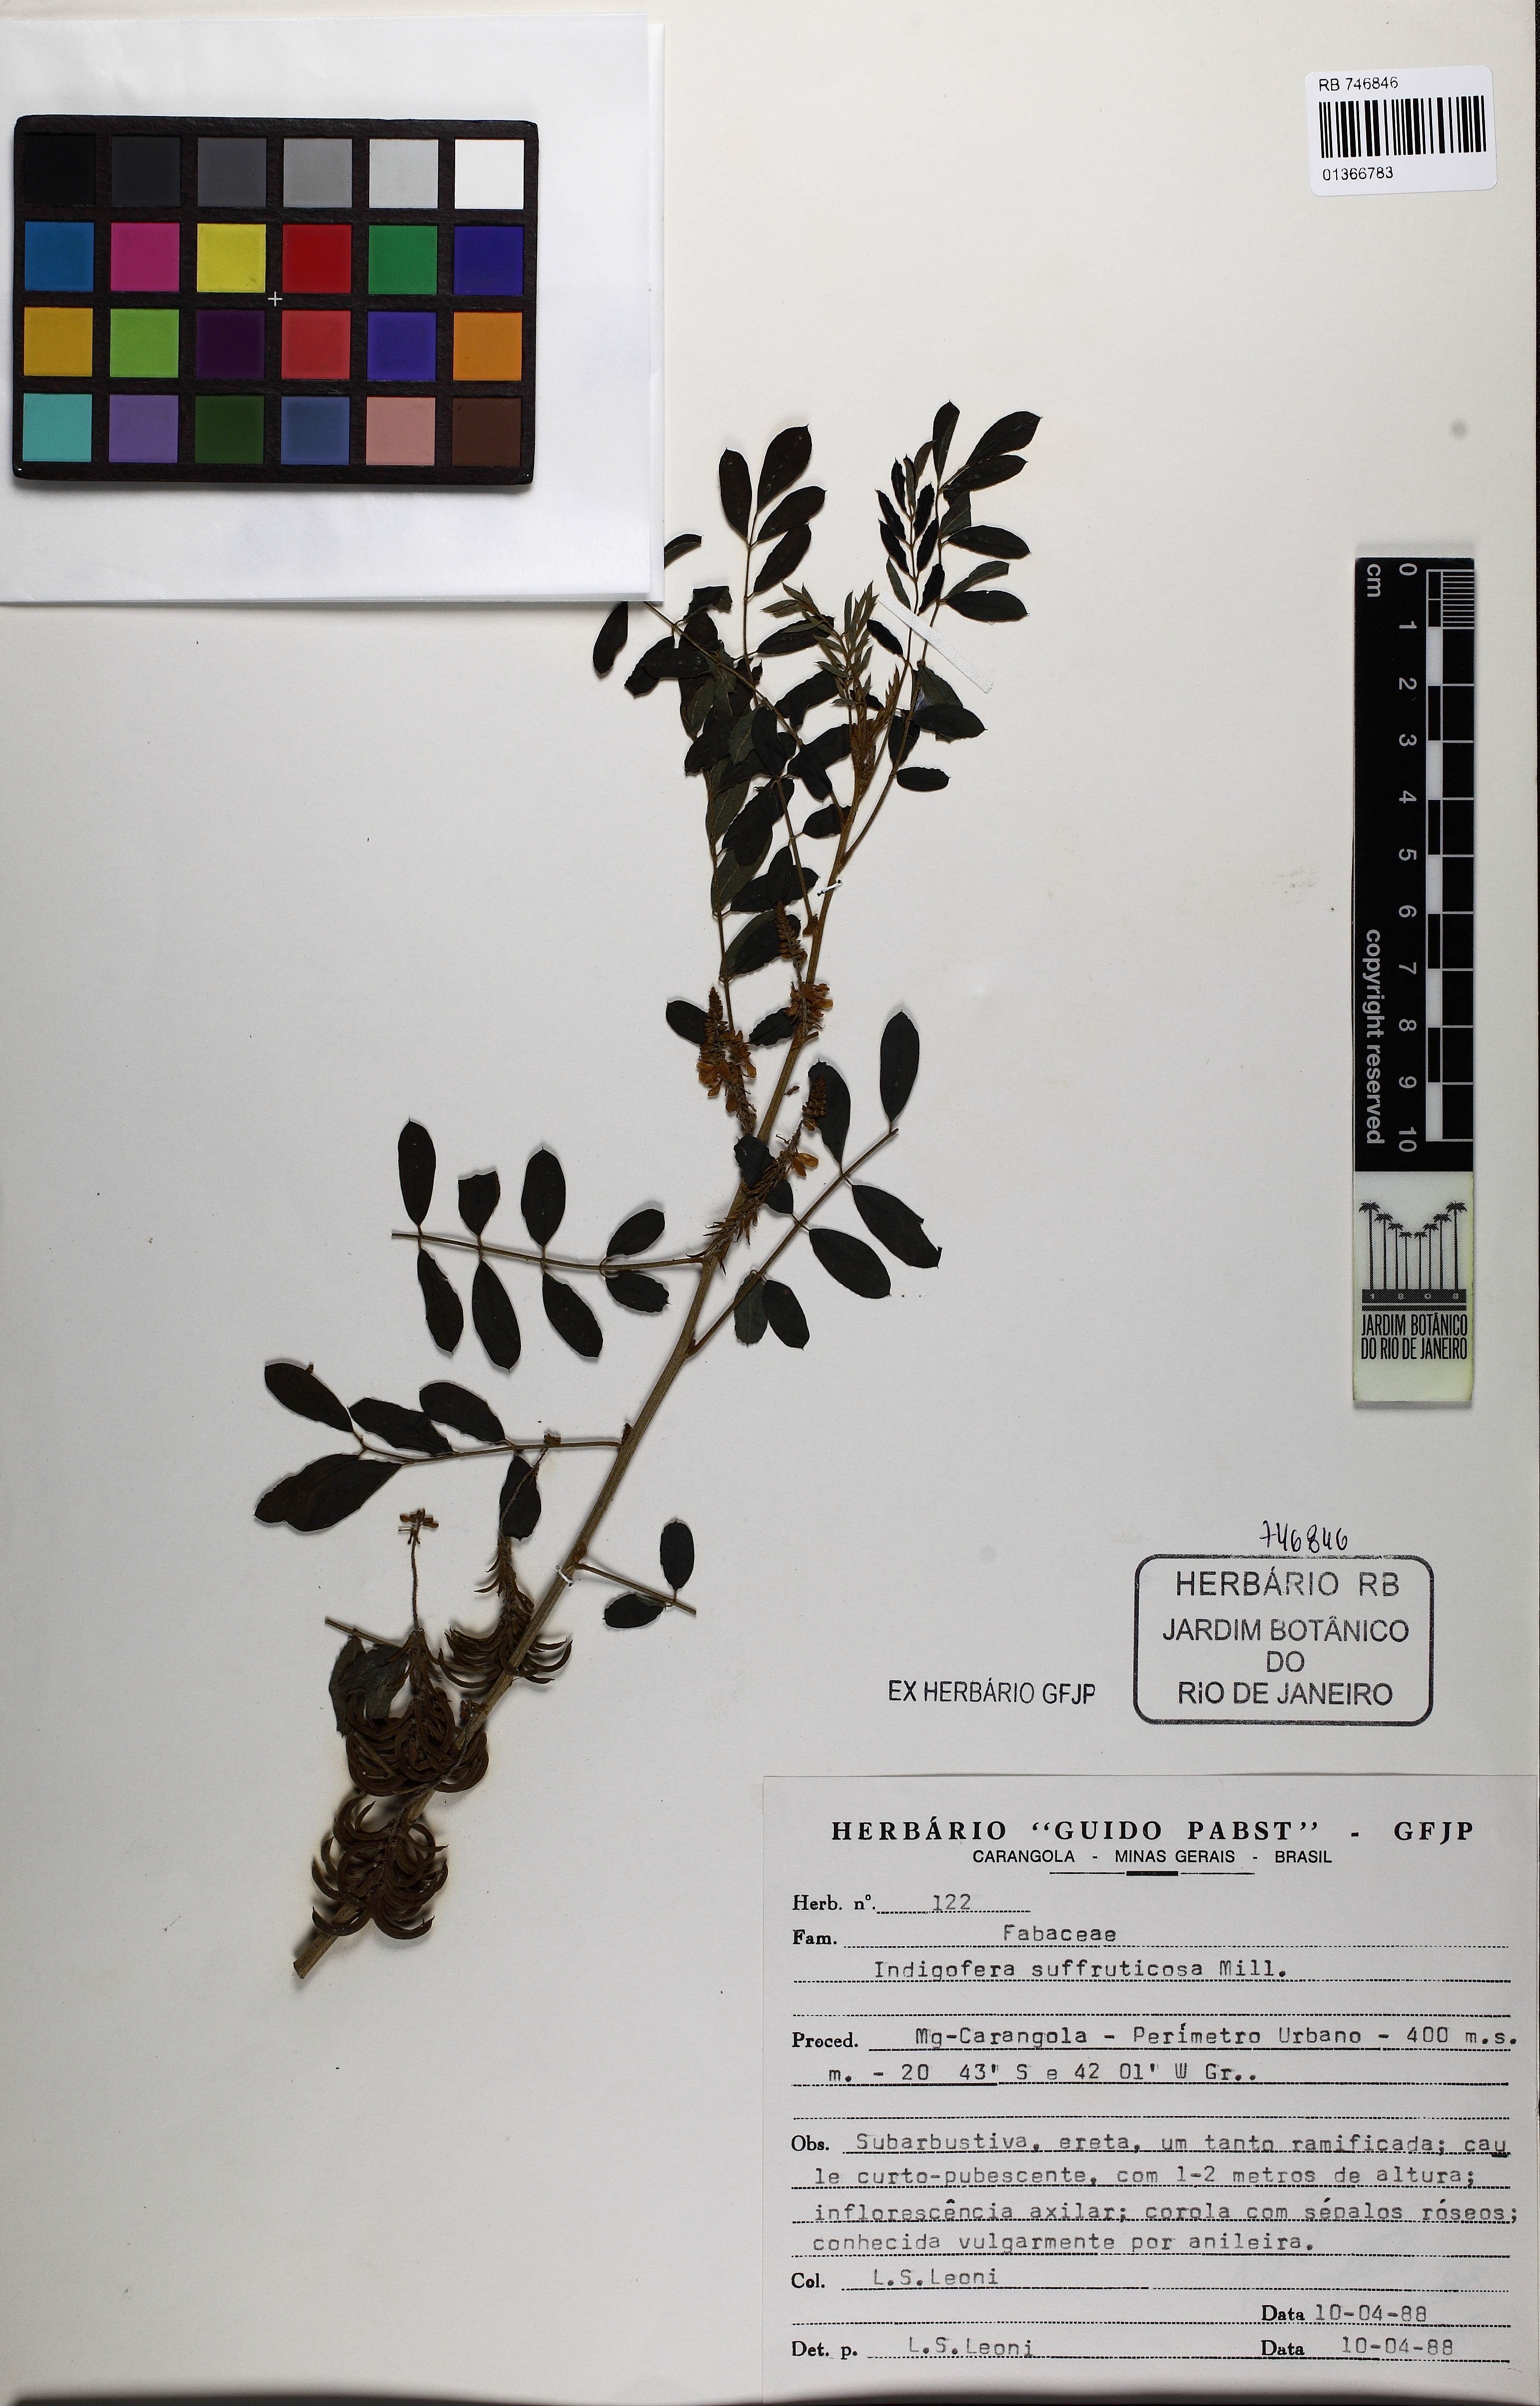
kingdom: Plantae
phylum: Tracheophyta
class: Magnoliopsida
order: Fabales
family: Fabaceae
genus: Indigofera
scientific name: Indigofera suffruticosa
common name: Anil de pasto
